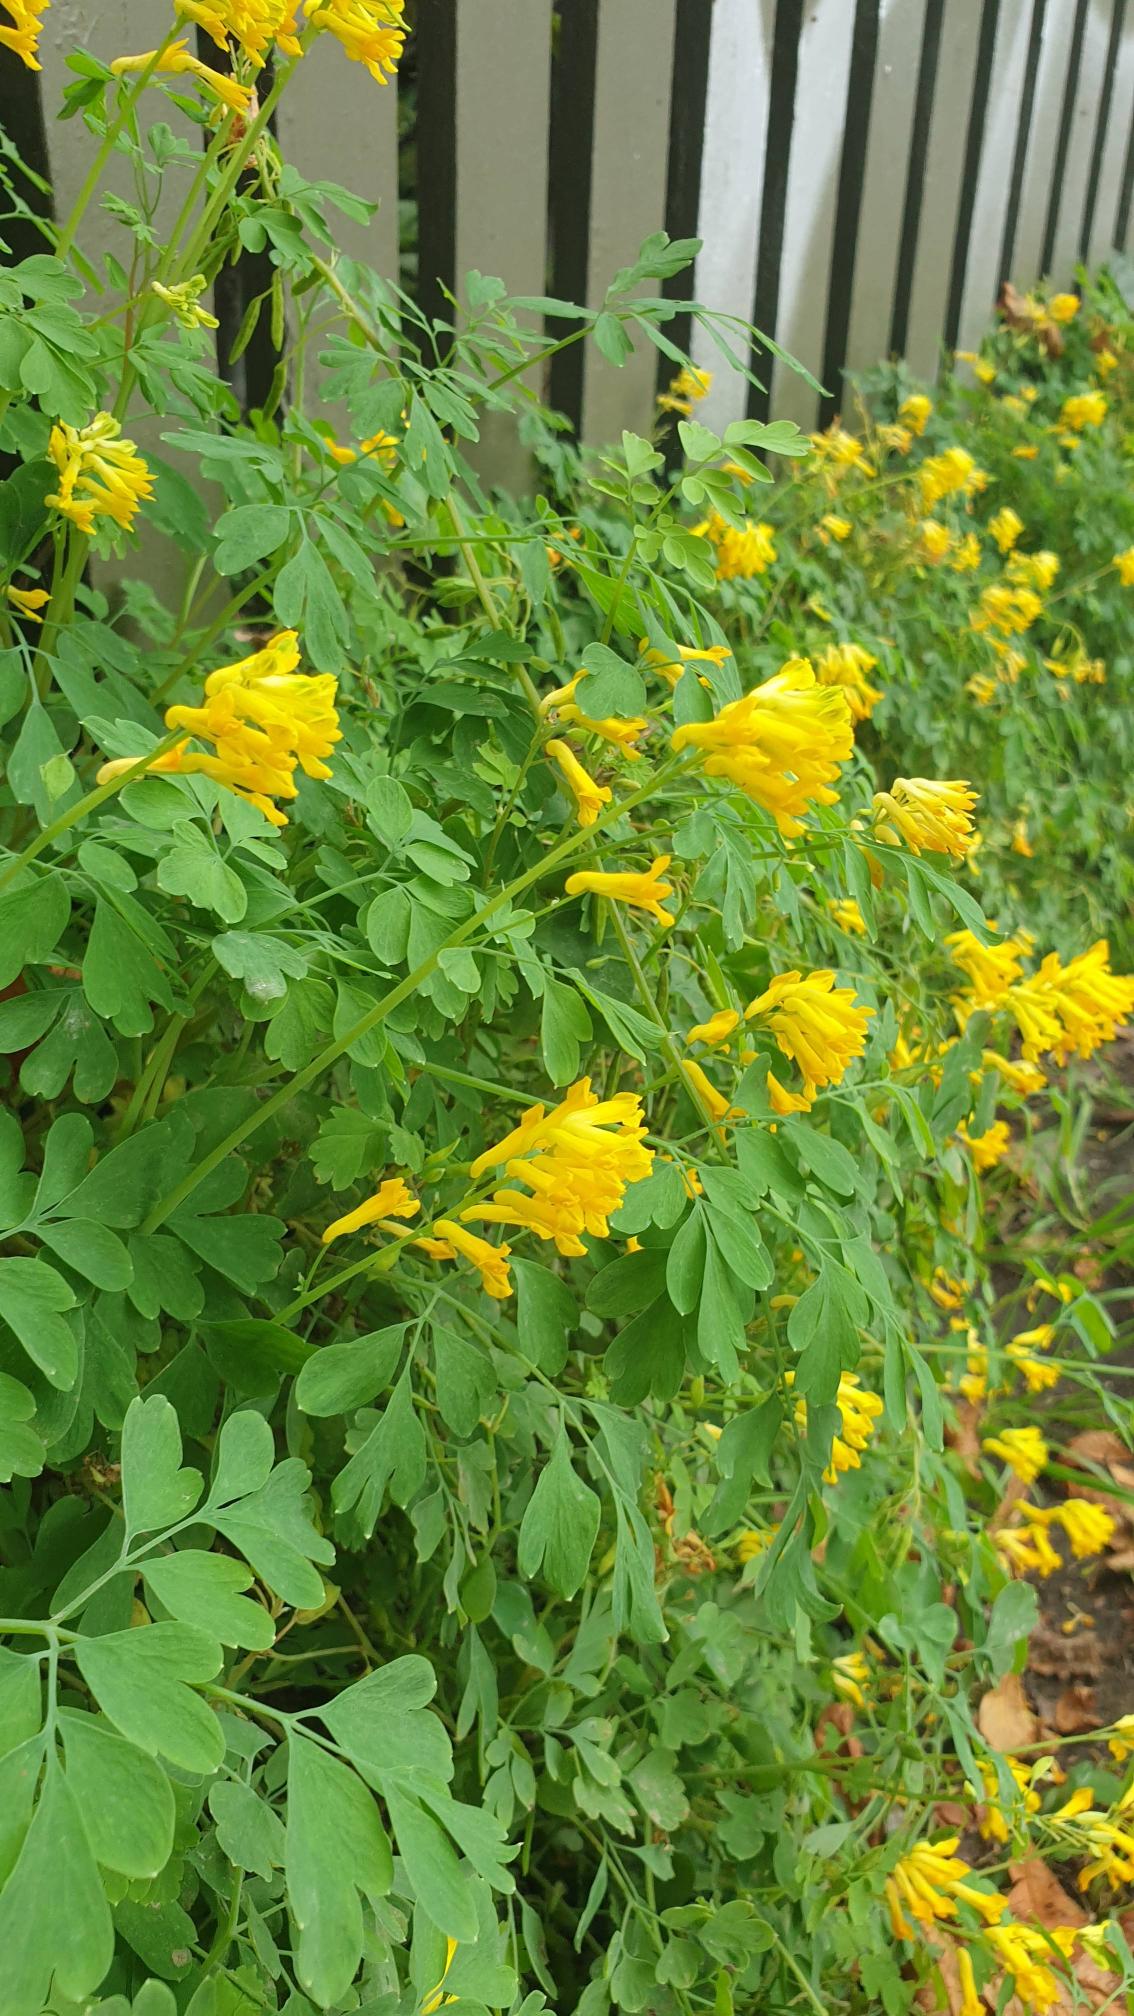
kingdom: Plantae
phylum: Tracheophyta
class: Magnoliopsida
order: Ranunculales
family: Papaveraceae
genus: Pseudofumaria
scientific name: Pseudofumaria lutea
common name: Gul lærkespore
